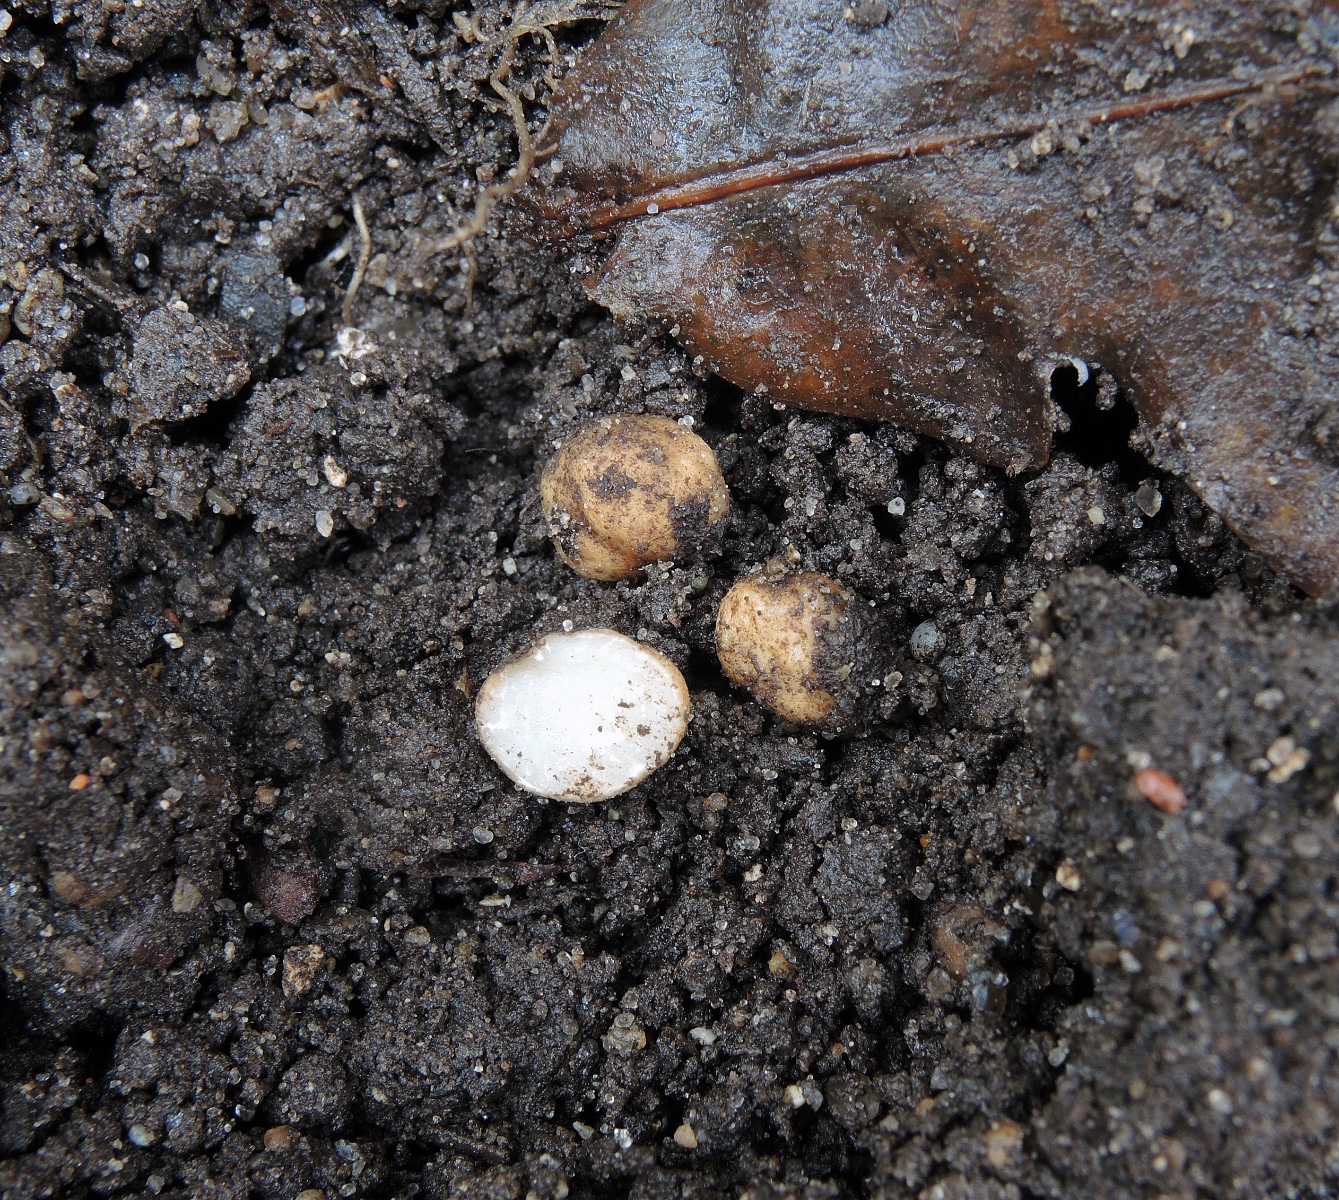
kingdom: Fungi
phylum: Ascomycota
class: Pezizomycetes
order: Pezizales
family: Tuberaceae
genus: Tuber
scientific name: Tuber maculatum
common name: plettet trøffel
